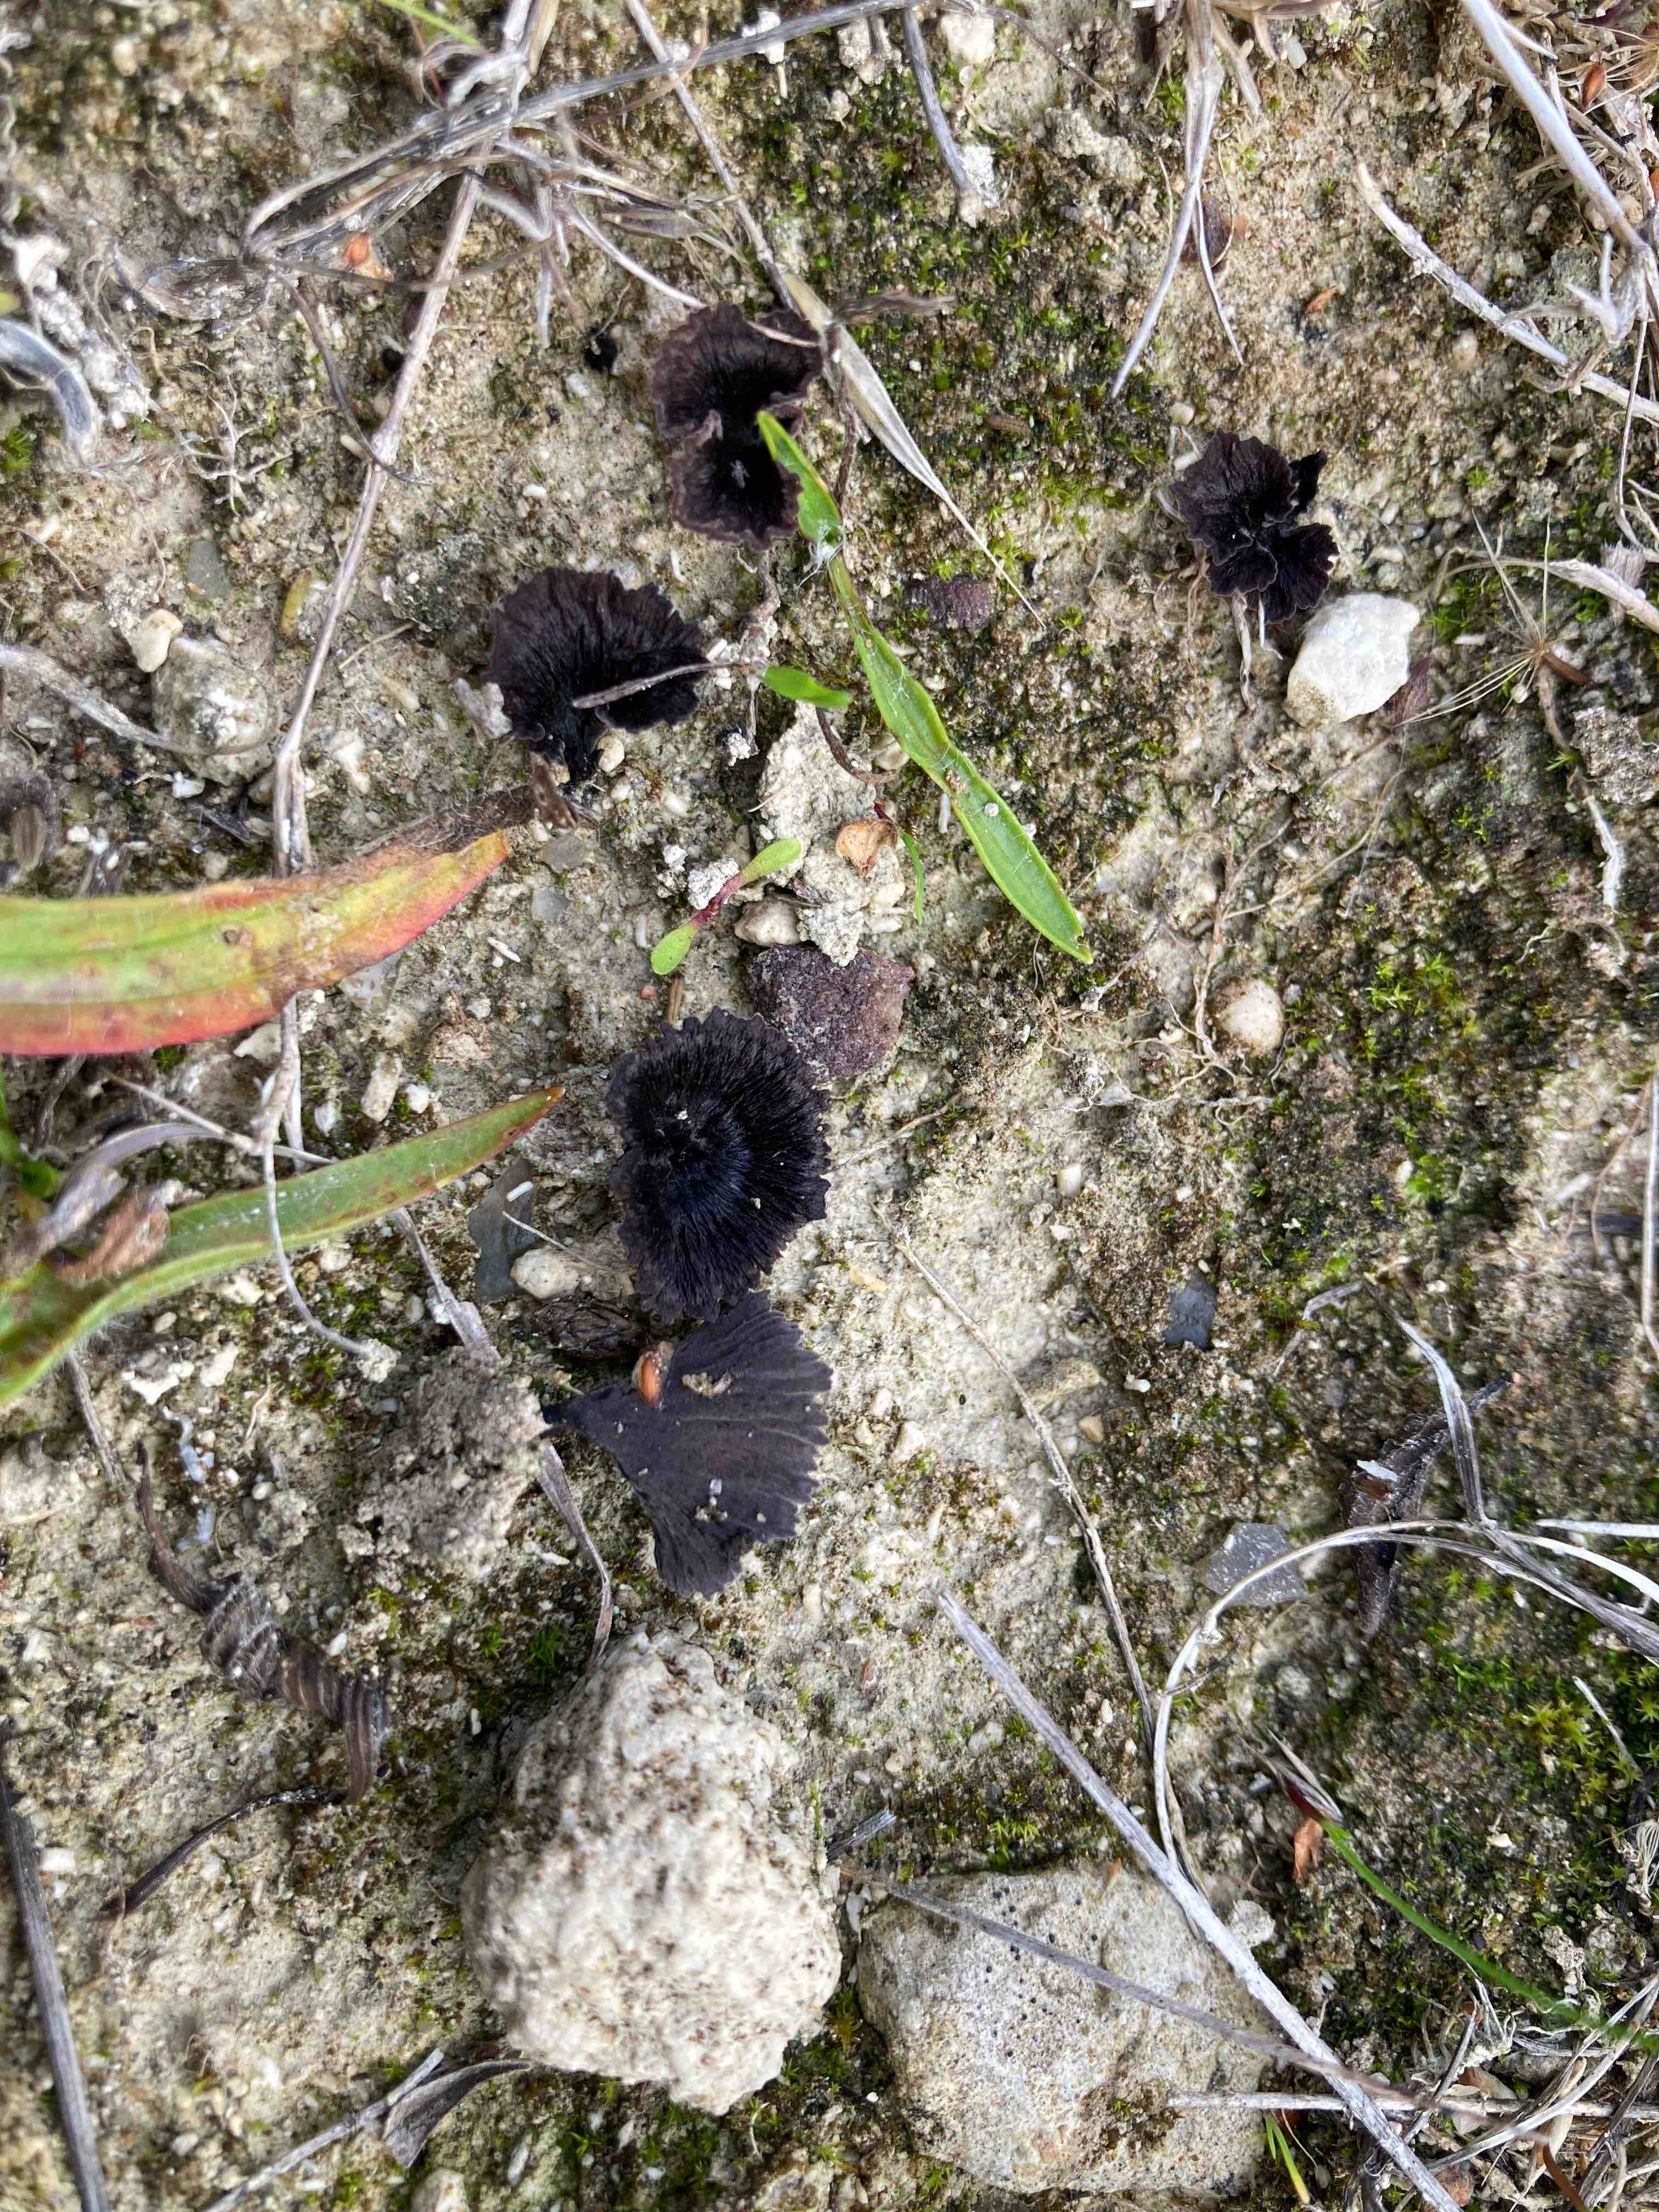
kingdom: Fungi
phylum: Basidiomycota
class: Agaricomycetes
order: Thelephorales
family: Thelephoraceae
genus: Thelephora
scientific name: Thelephora caryophyllea
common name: tragt-frynsesvamp
